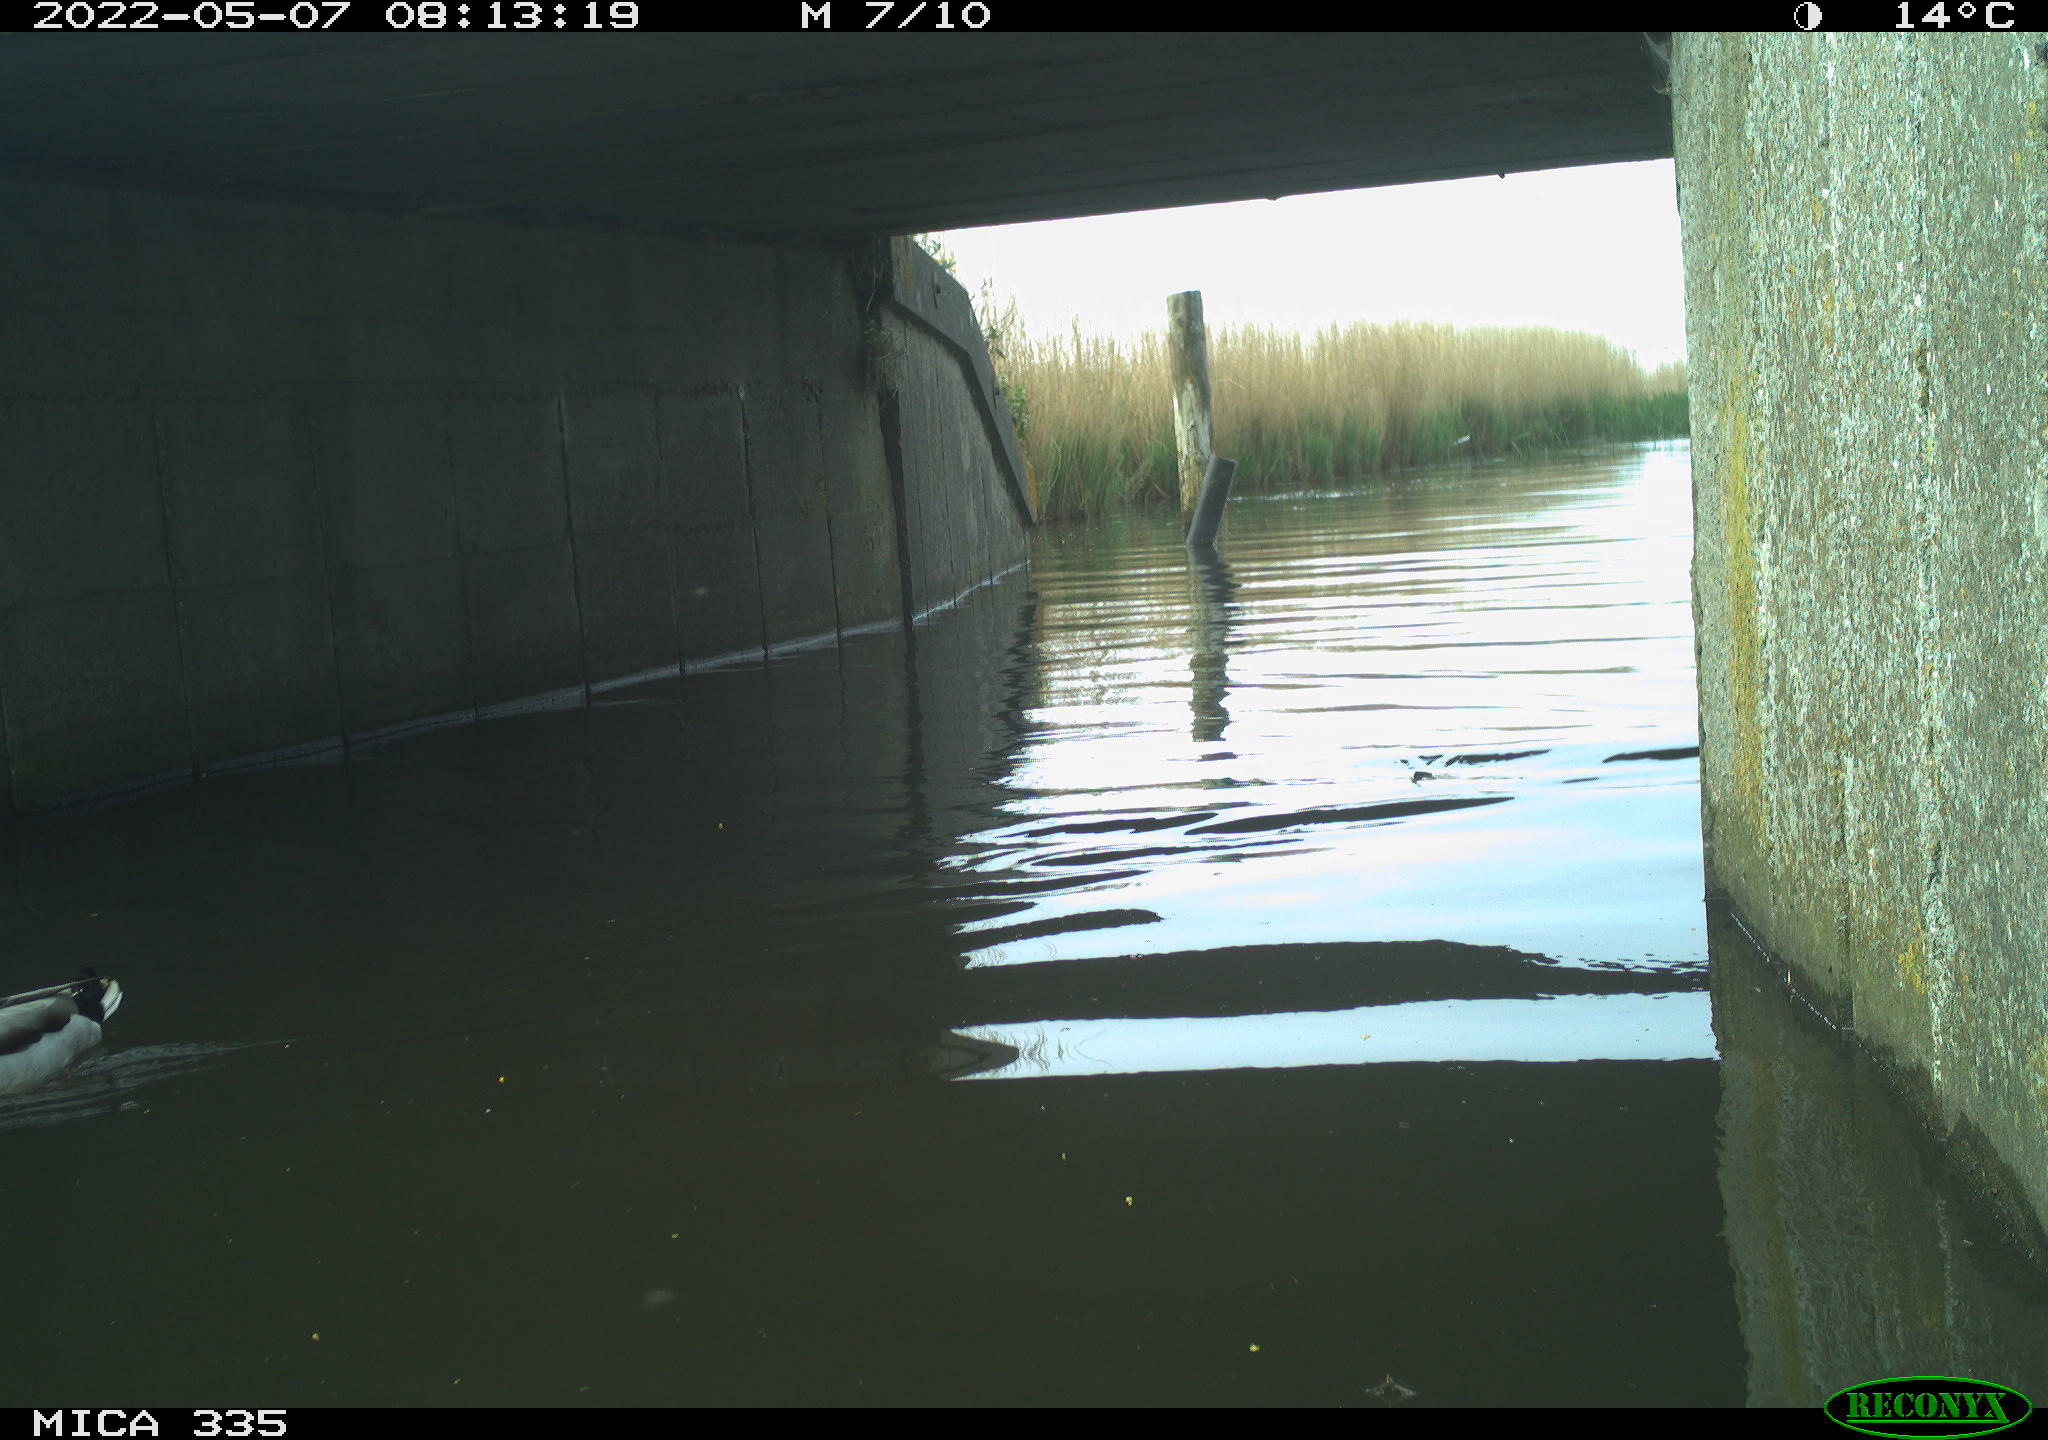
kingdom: Animalia
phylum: Chordata
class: Aves
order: Anseriformes
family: Anatidae
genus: Anas
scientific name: Anas platyrhynchos
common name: Mallard
